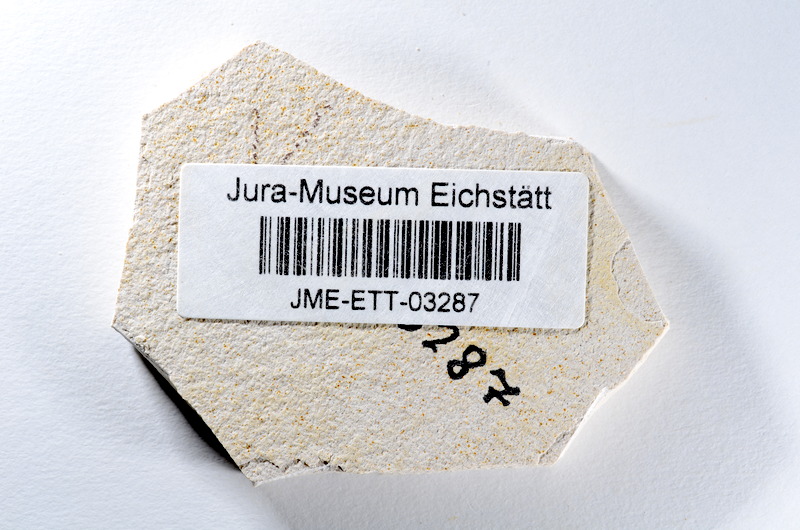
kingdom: Animalia
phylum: Chordata
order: Salmoniformes
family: Orthogonikleithridae
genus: Orthogonikleithrus
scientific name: Orthogonikleithrus hoelli
